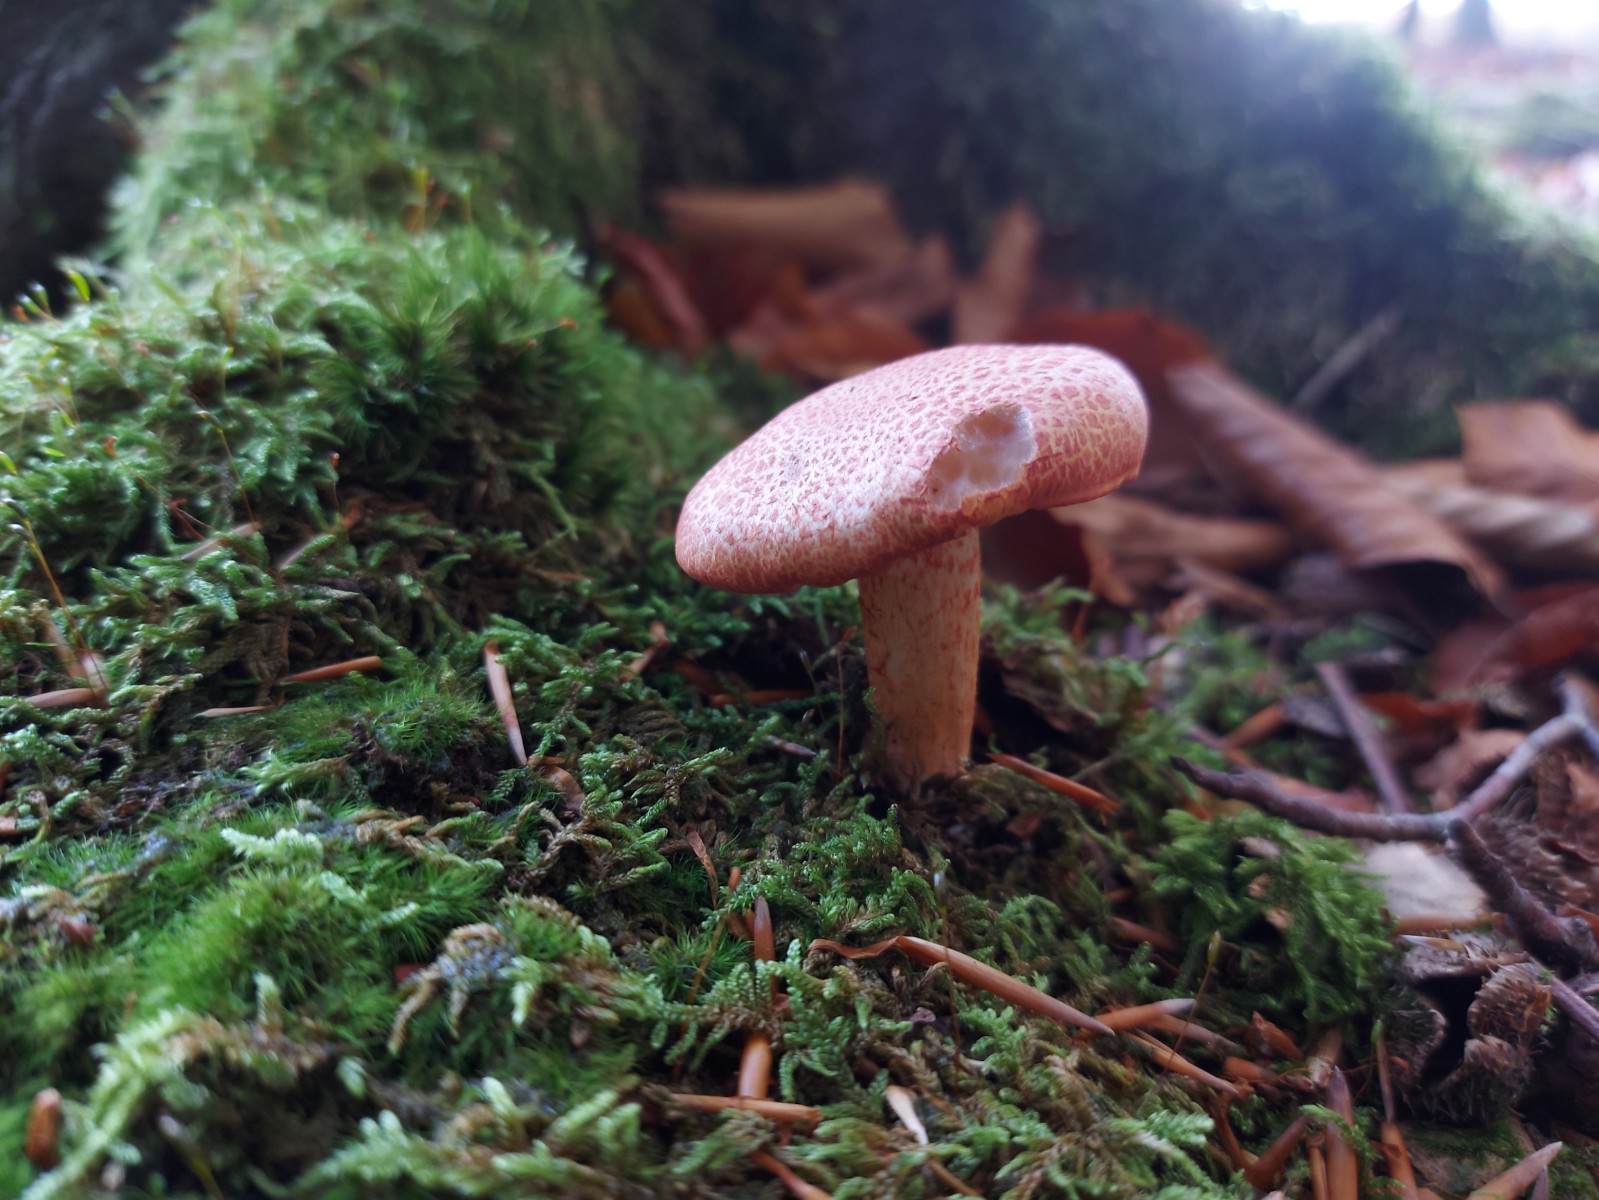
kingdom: Fungi
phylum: Basidiomycota
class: Agaricomycetes
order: Agaricales
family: Cortinariaceae
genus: Cortinarius
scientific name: Cortinarius bolaris
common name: cinnoberskællet slørhat
